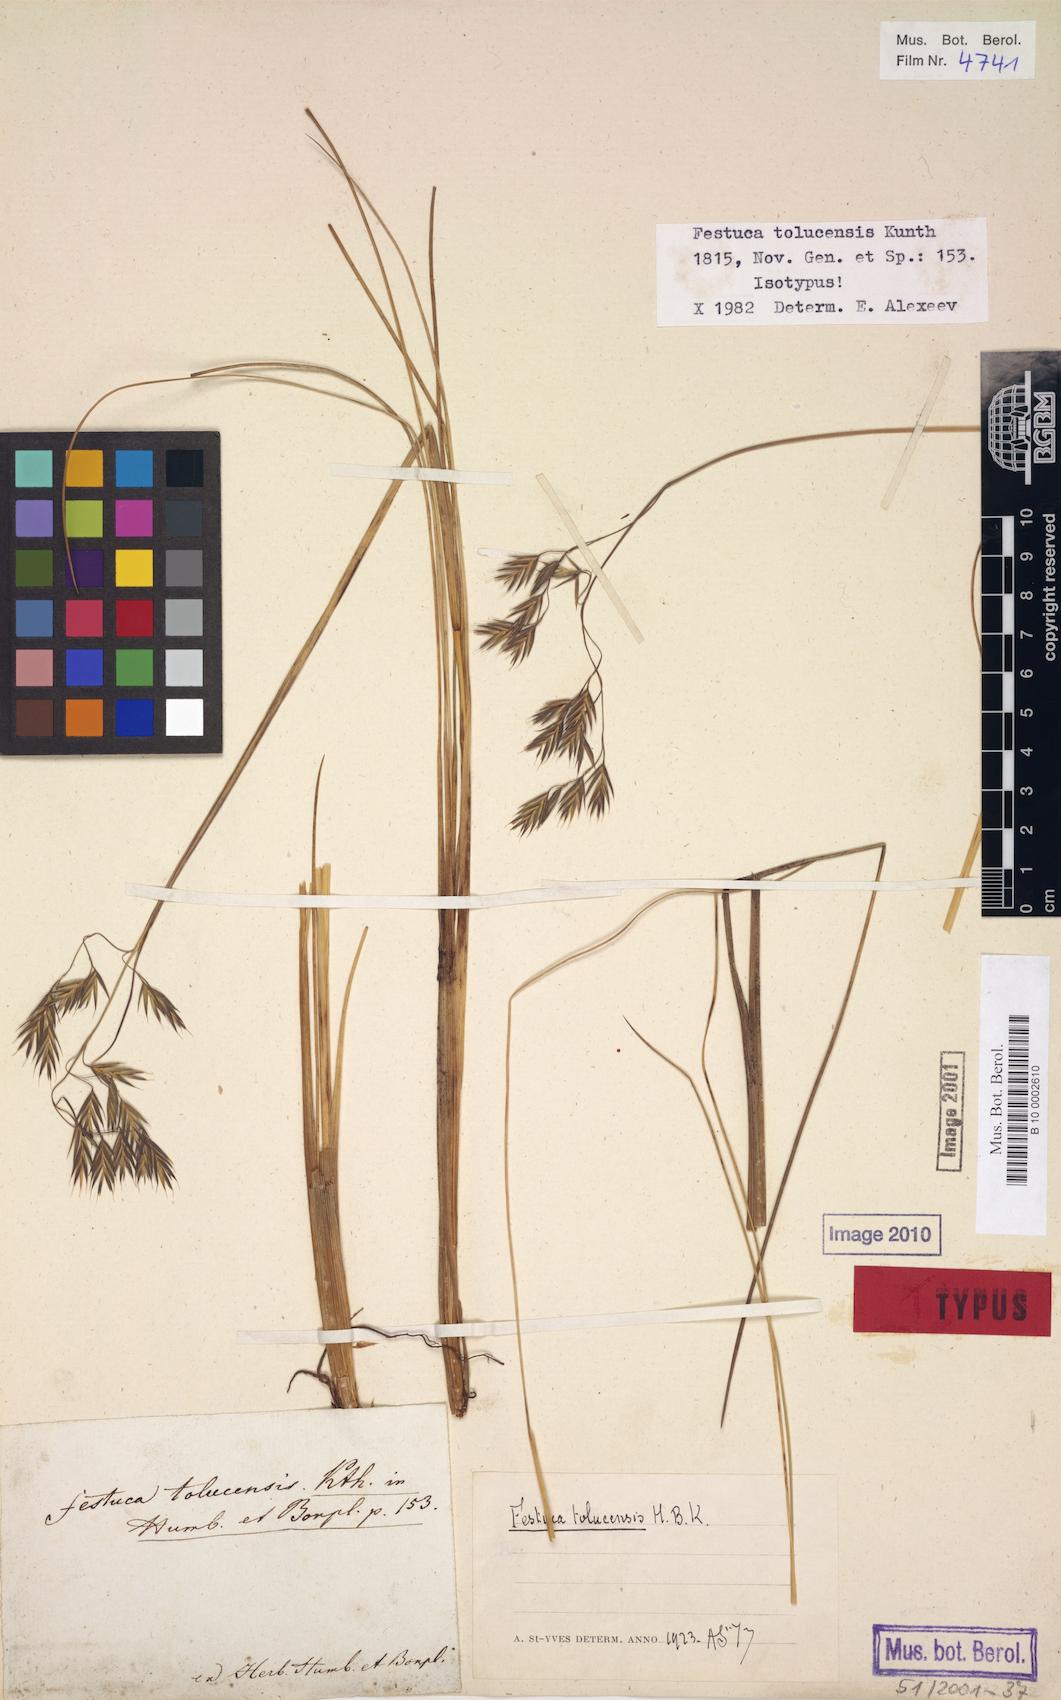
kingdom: Plantae
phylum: Tracheophyta
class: Liliopsida
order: Poales
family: Poaceae
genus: Festuca
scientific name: Festuca tolucensis
